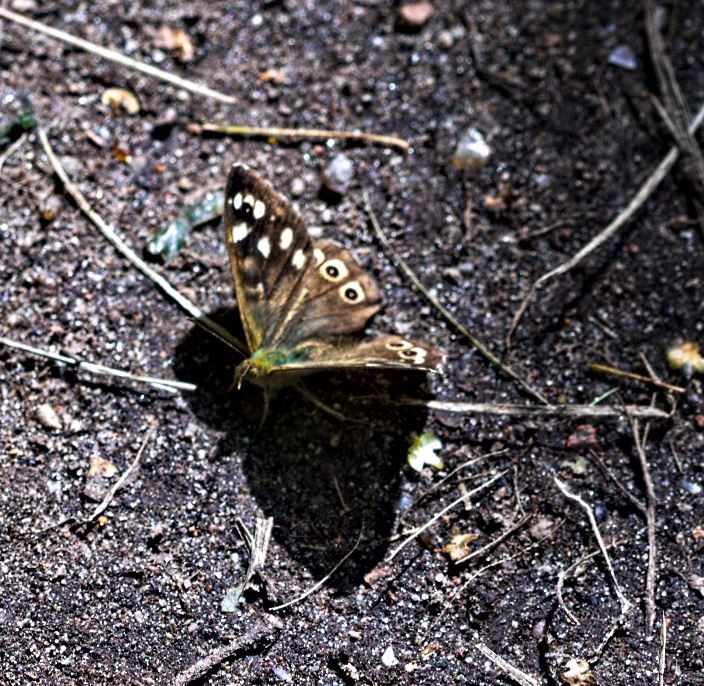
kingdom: Animalia
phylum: Arthropoda
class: Insecta
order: Lepidoptera
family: Nymphalidae
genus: Pararge
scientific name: Pararge aegeria
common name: Skovrandøje
